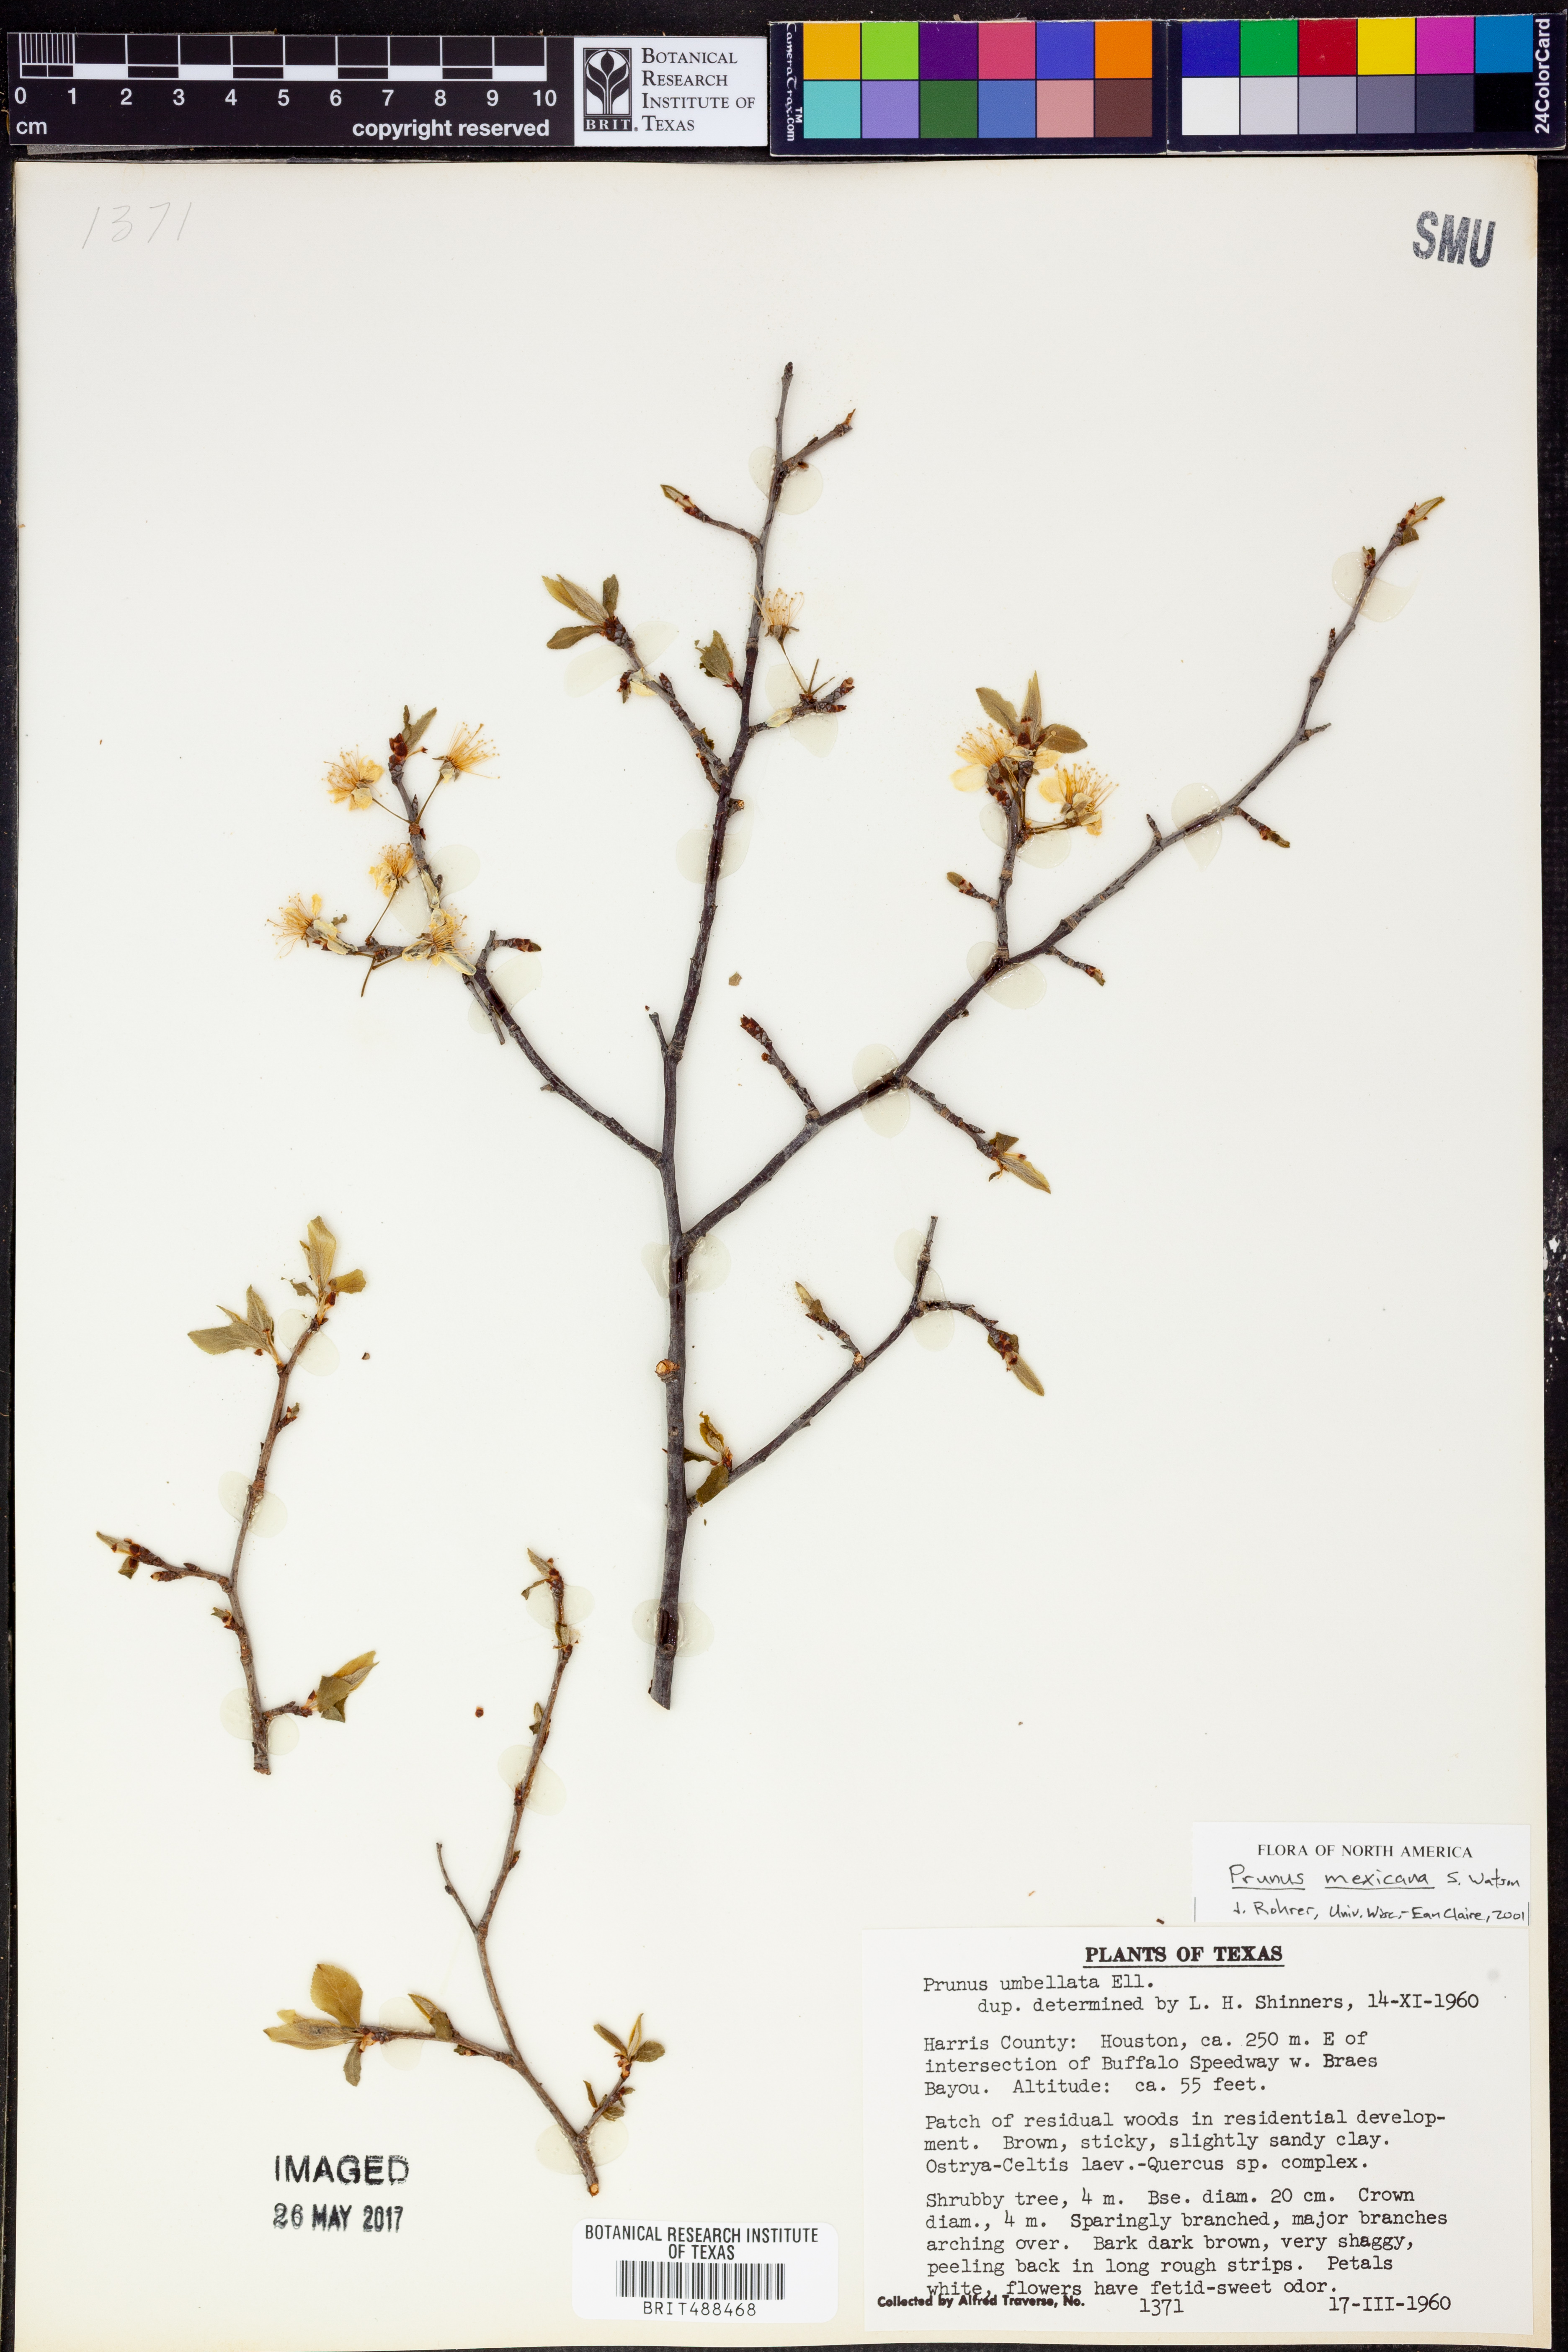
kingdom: Plantae
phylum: Tracheophyta
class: Magnoliopsida
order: Rosales
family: Rosaceae
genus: Prunus
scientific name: Prunus mexicana
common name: Mexican plum
